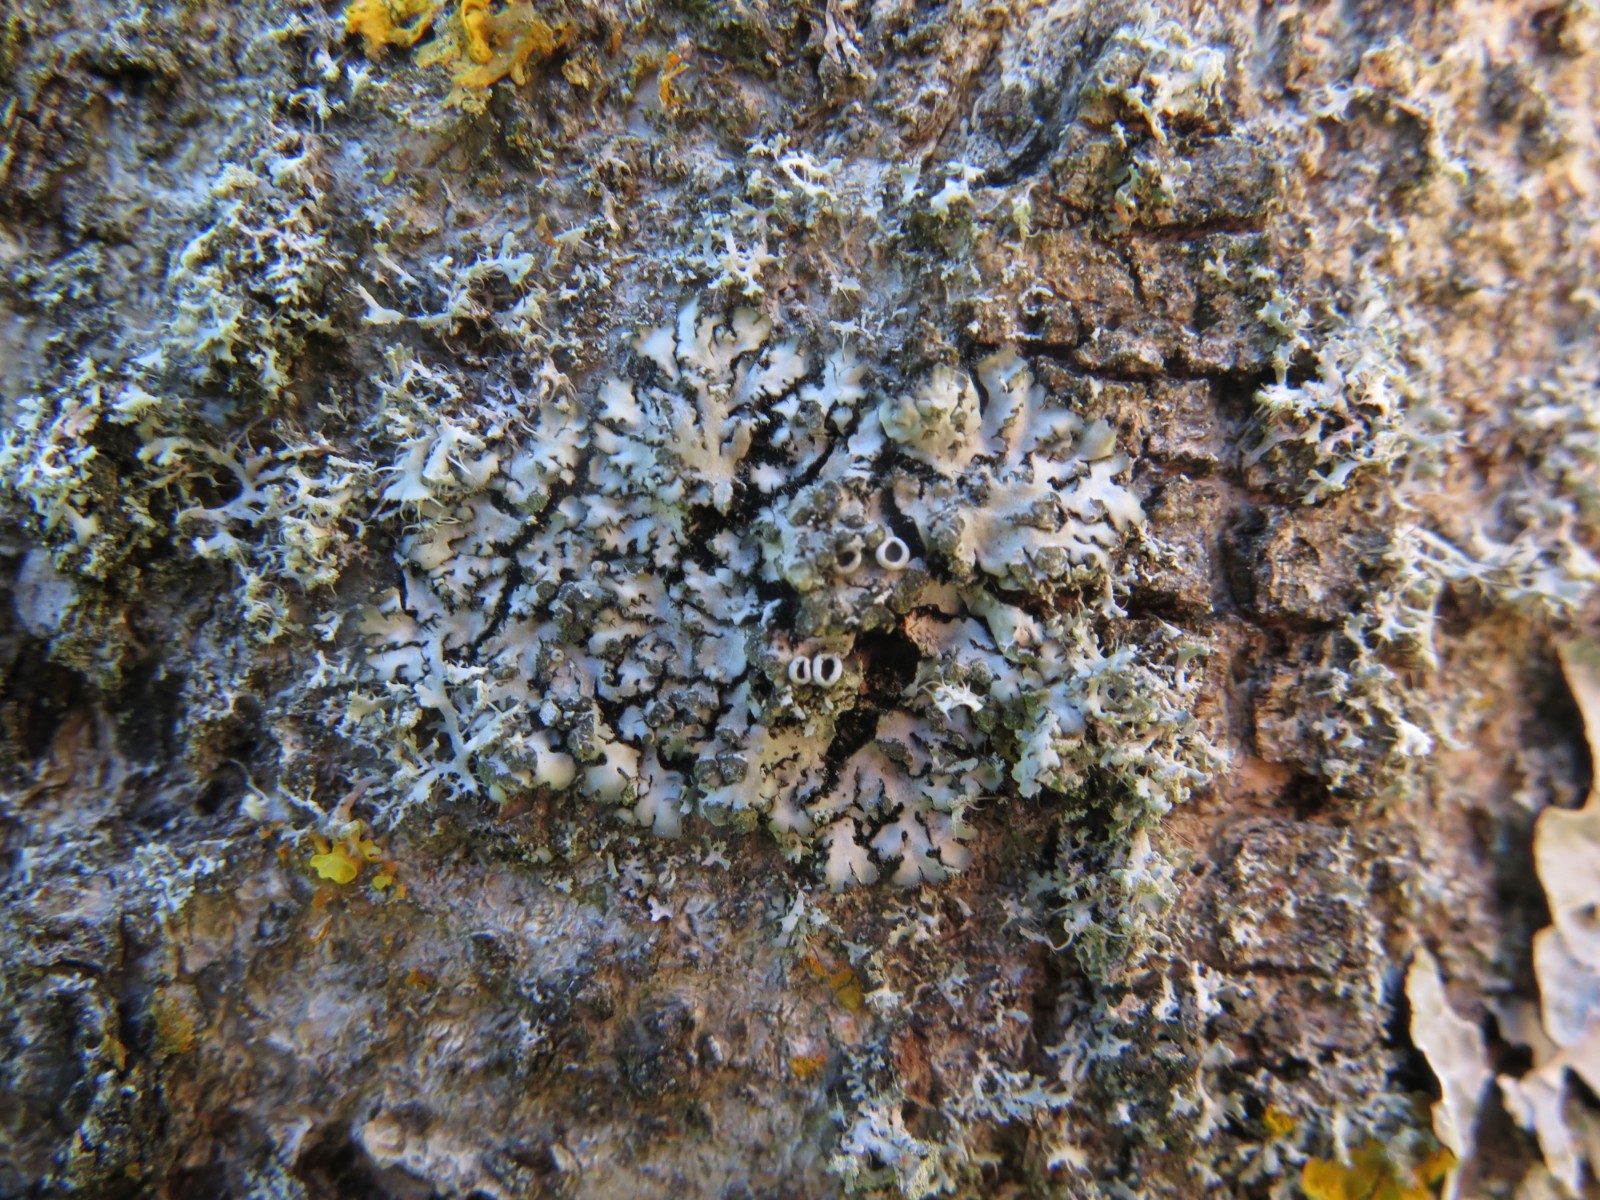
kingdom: Fungi
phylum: Ascomycota
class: Lecanoromycetes
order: Caliciales
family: Physciaceae
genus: Phaeophyscia
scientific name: Phaeophyscia orbicularis
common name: grågrøn rosetlav
